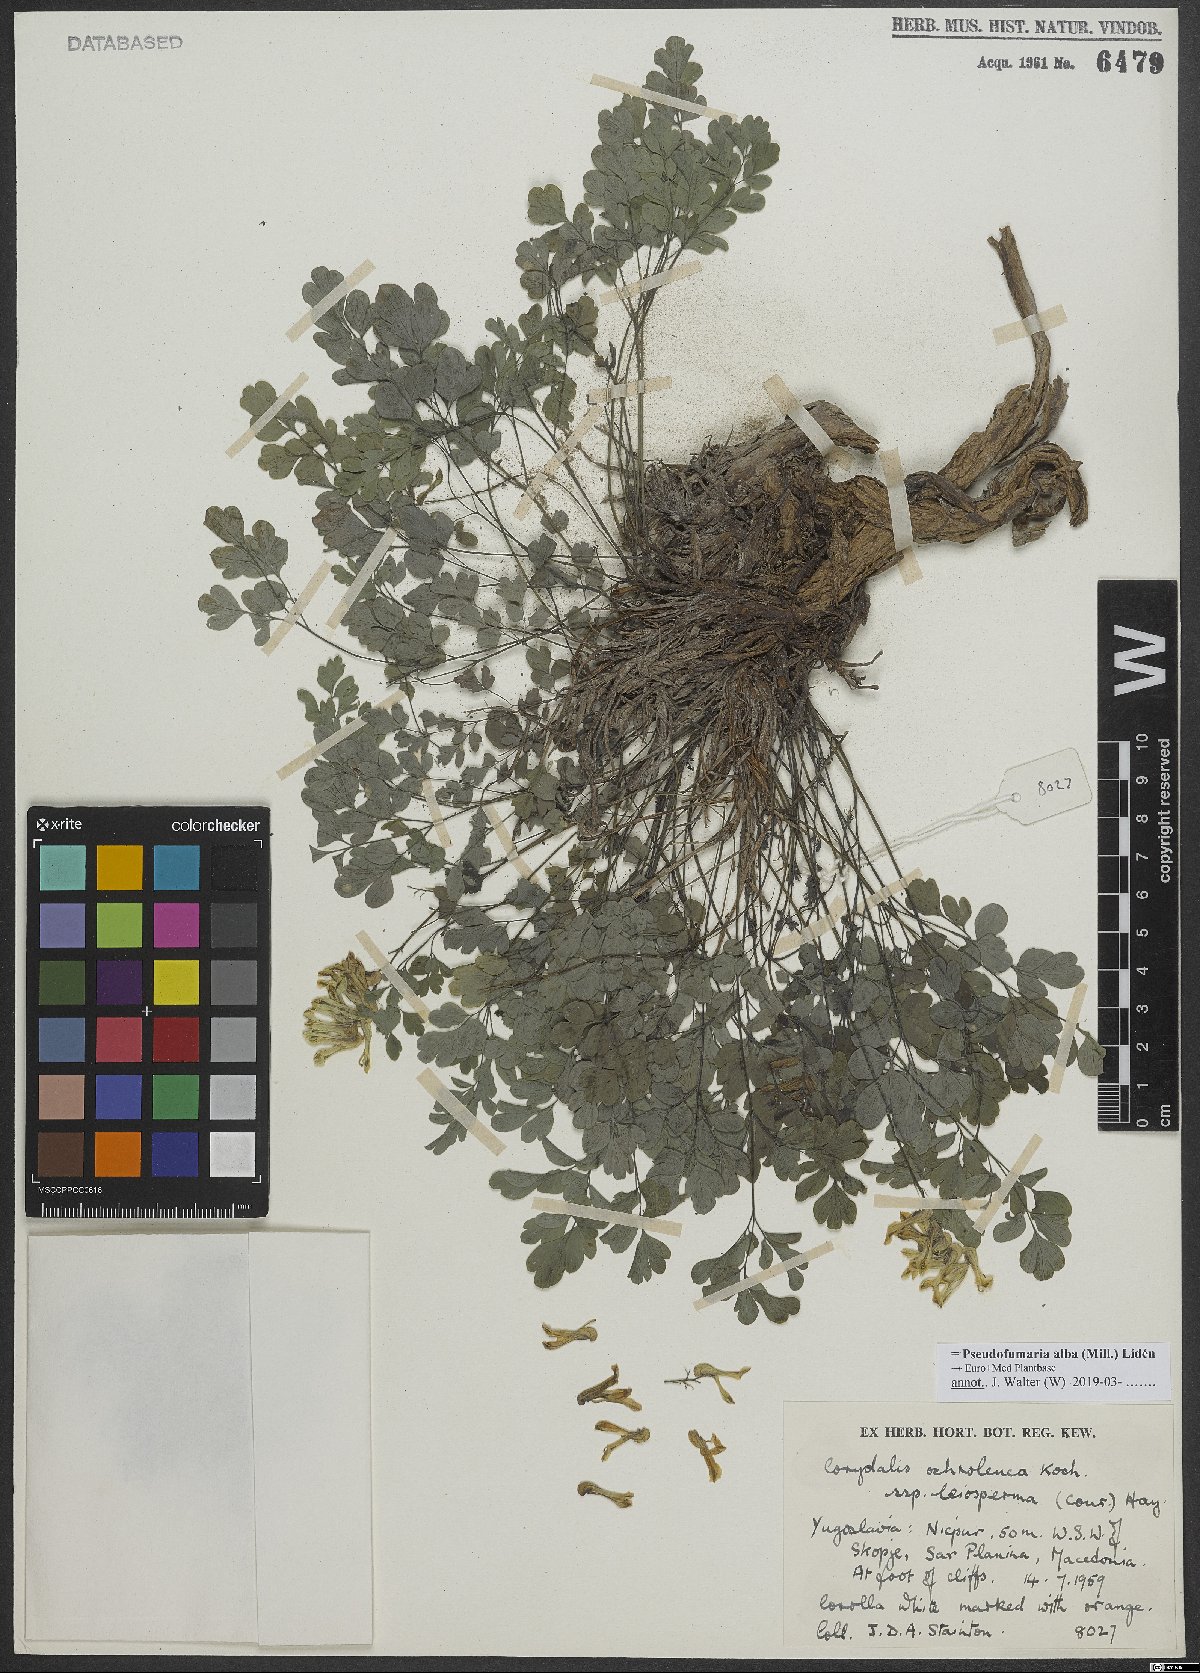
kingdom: Plantae
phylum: Tracheophyta
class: Magnoliopsida
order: Ranunculales
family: Papaveraceae
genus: Pseudofumaria
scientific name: Pseudofumaria alba
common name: Pale corydalis
